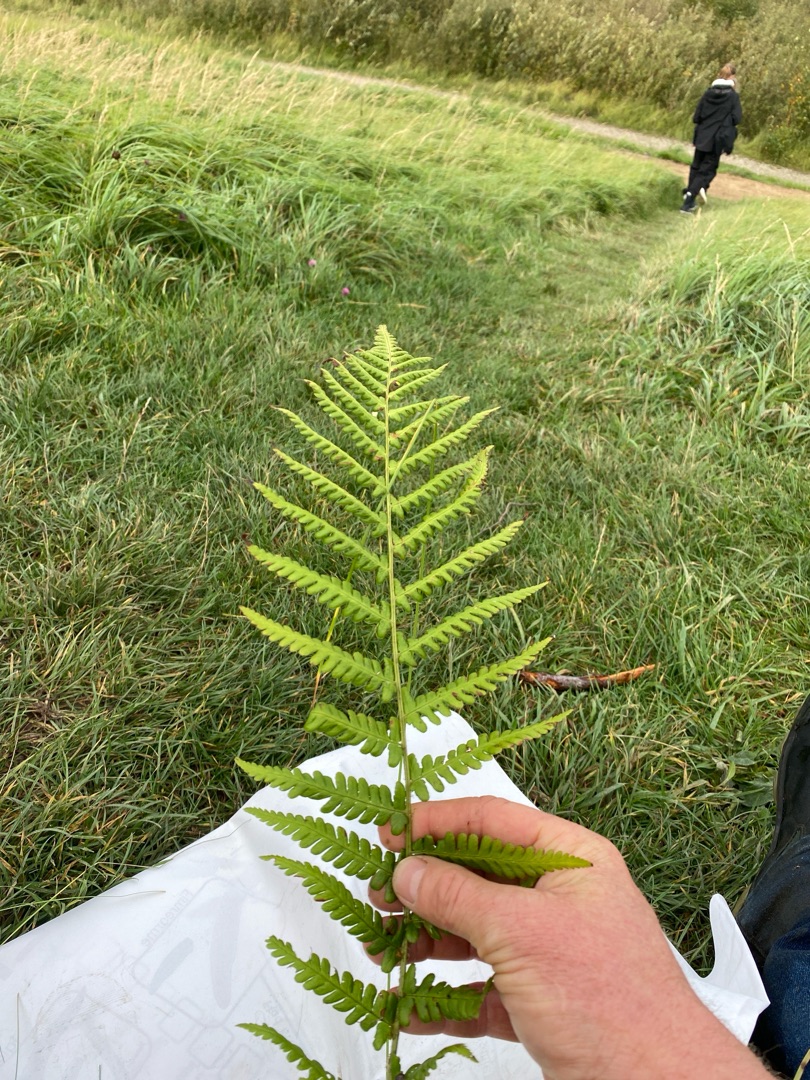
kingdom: Plantae
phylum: Tracheophyta
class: Polypodiopsida
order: Polypodiales
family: Dryopteridaceae
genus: Dryopteris
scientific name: Dryopteris filix-mas
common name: Almindelig mangeløv
